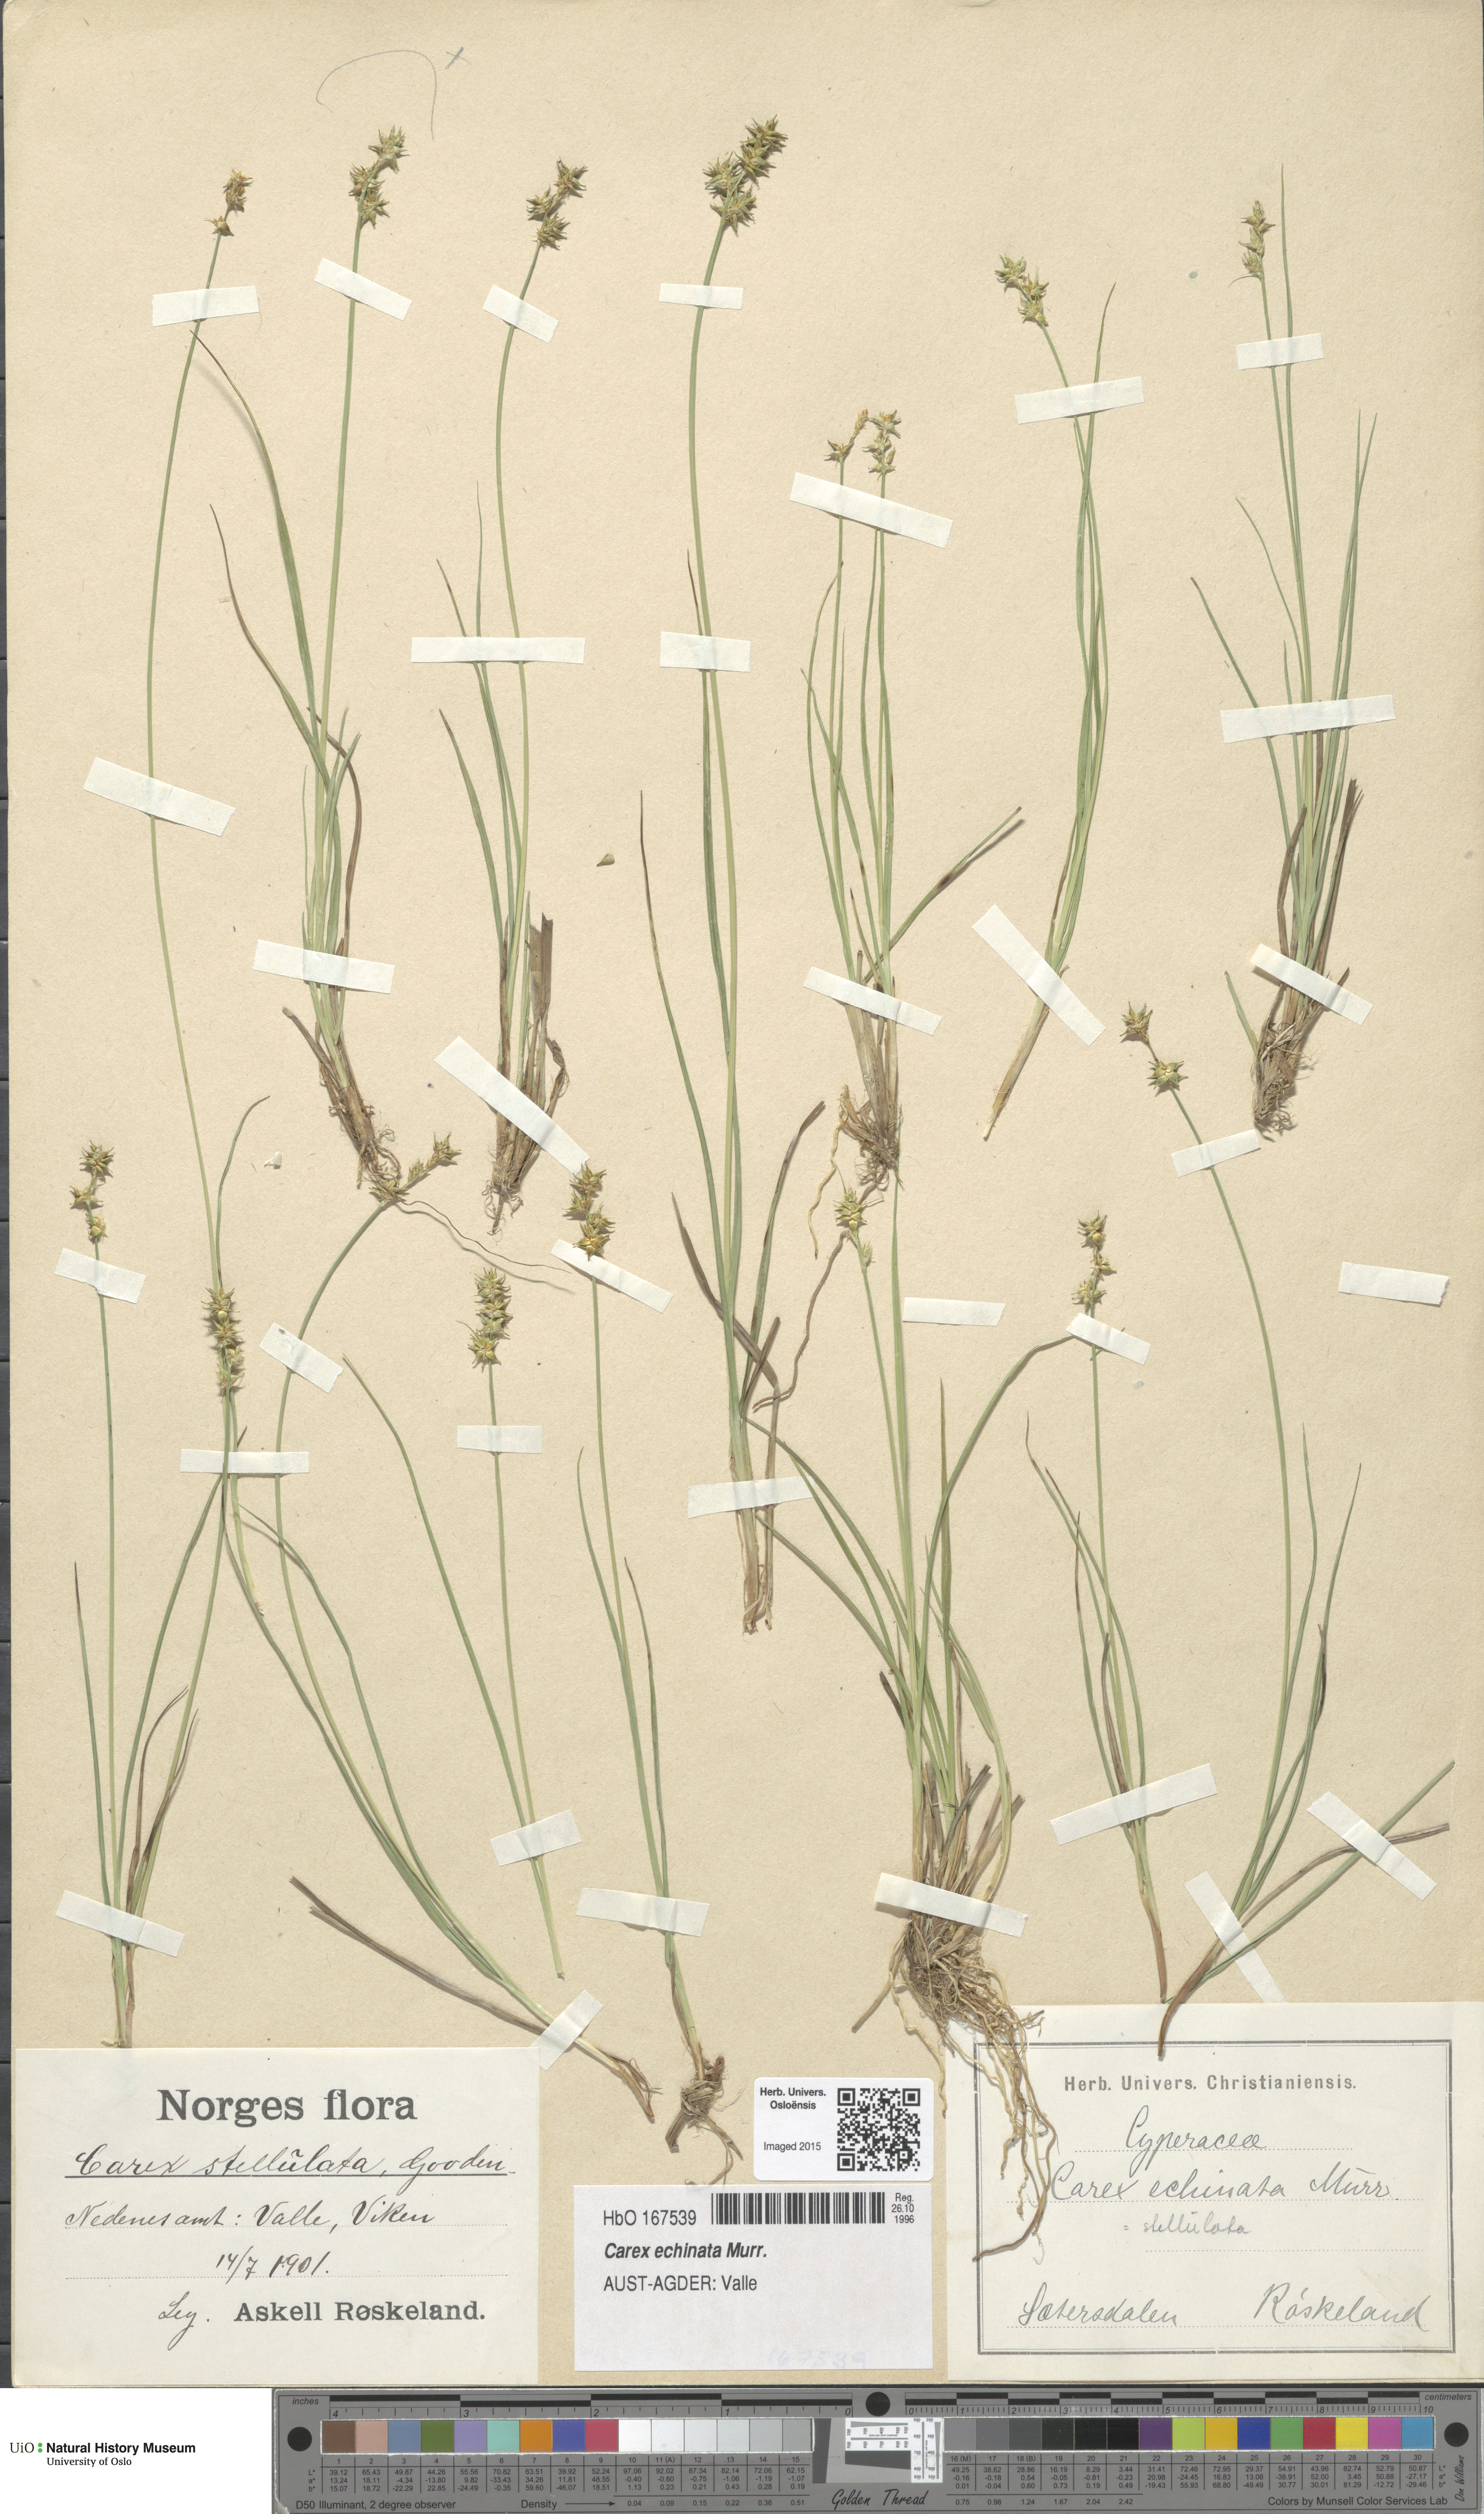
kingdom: Plantae
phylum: Tracheophyta
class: Liliopsida
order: Poales
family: Cyperaceae
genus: Carex
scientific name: Carex echinata
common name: Star sedge
